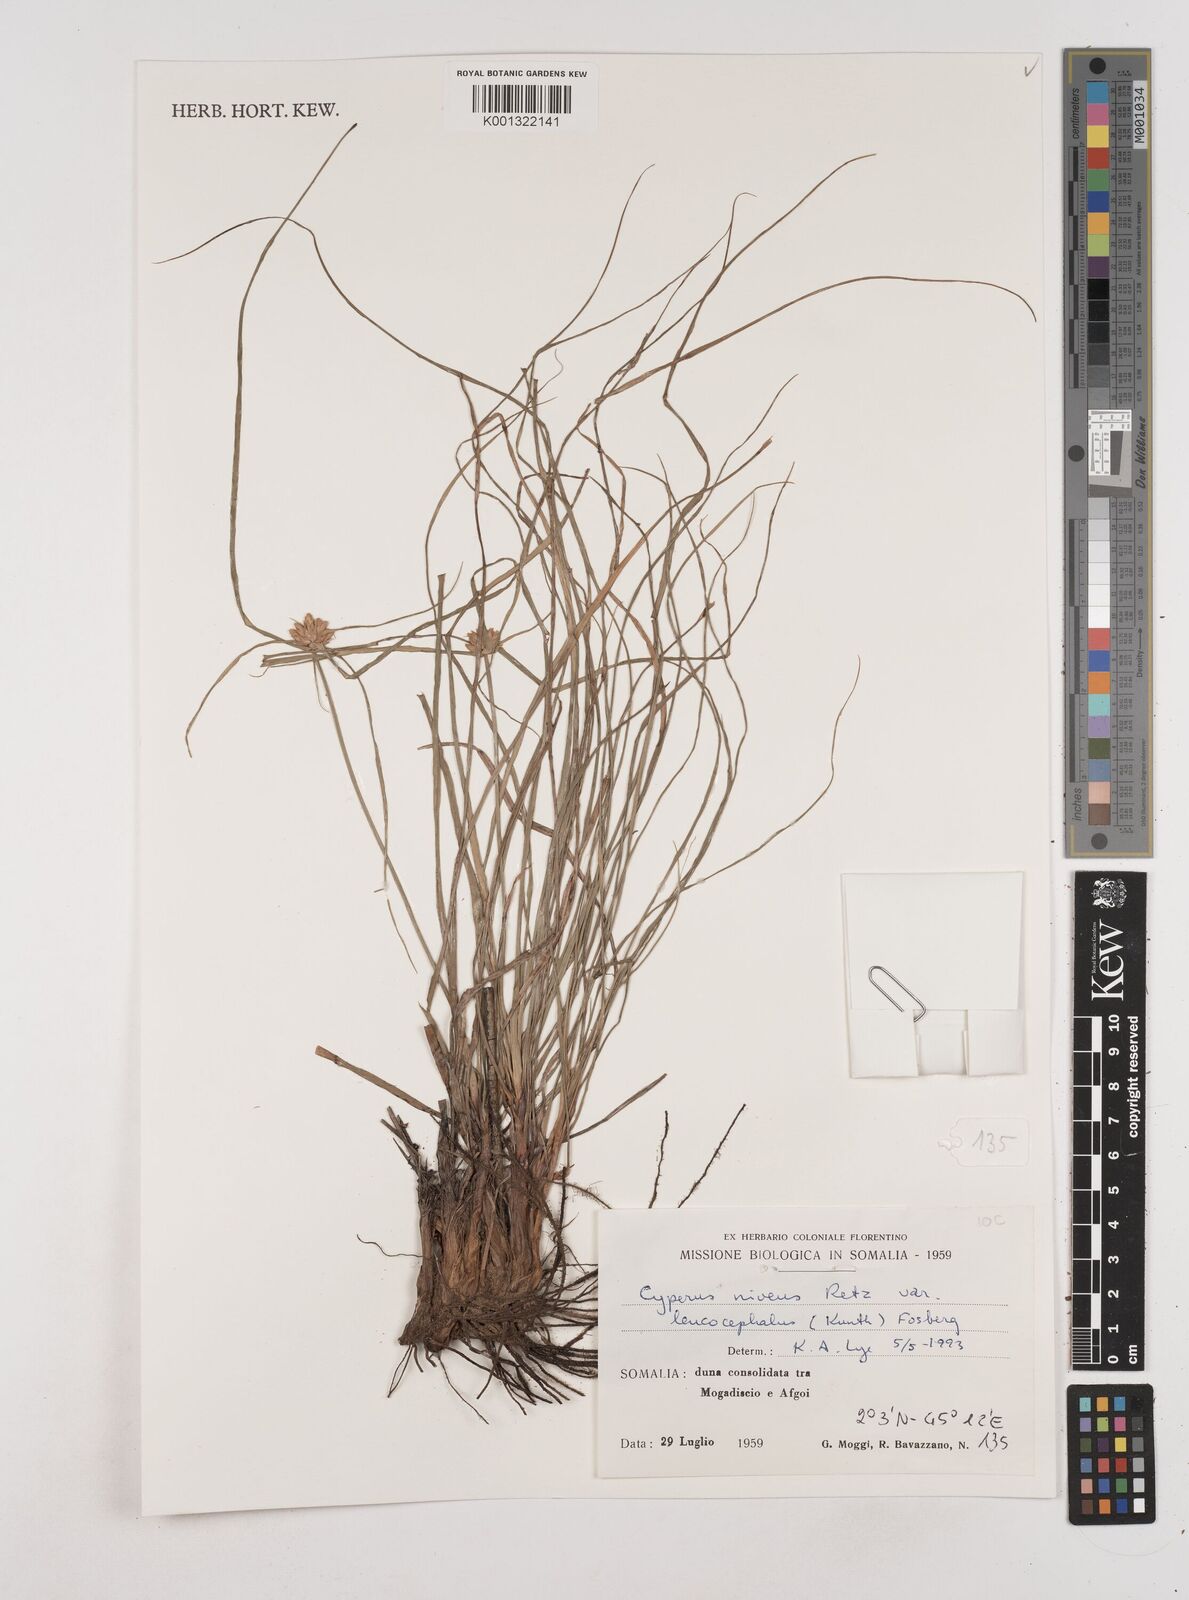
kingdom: Plantae
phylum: Tracheophyta
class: Liliopsida
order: Poales
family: Cyperaceae
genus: Cyperus
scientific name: Cyperus niveus
